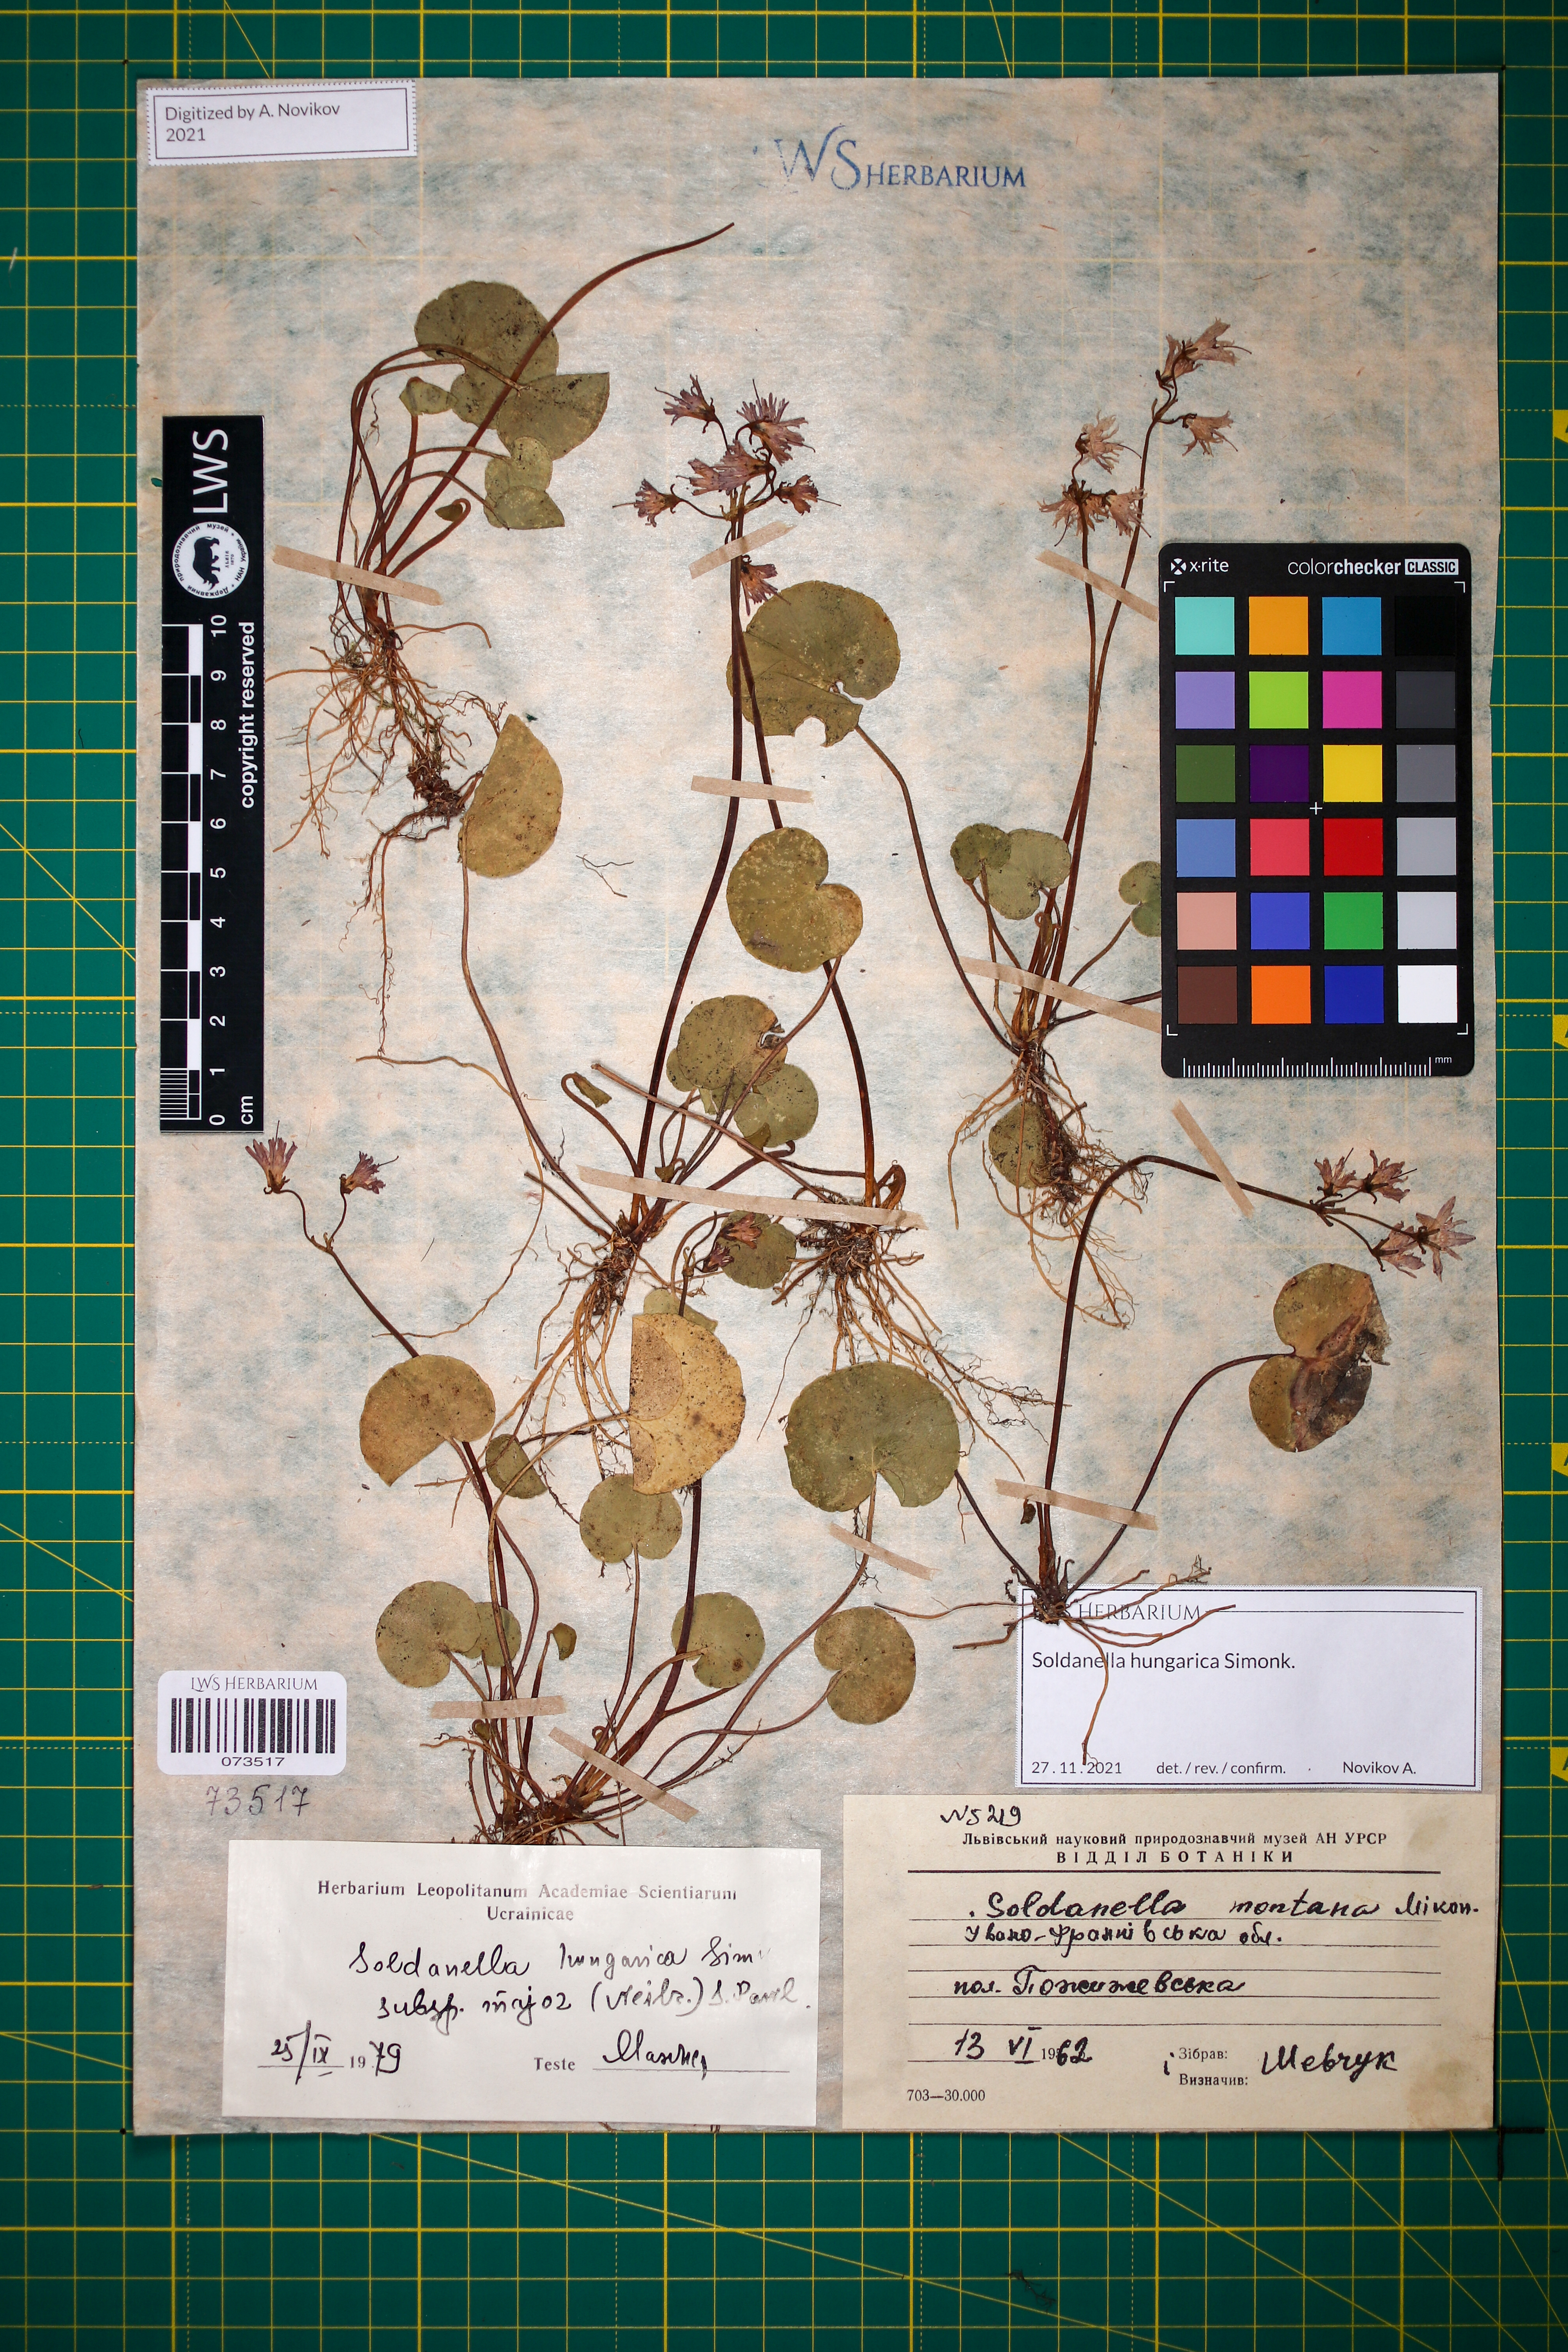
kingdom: Plantae
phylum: Tracheophyta
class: Magnoliopsida
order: Ericales
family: Primulaceae
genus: Soldanella
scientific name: Soldanella hungarica
